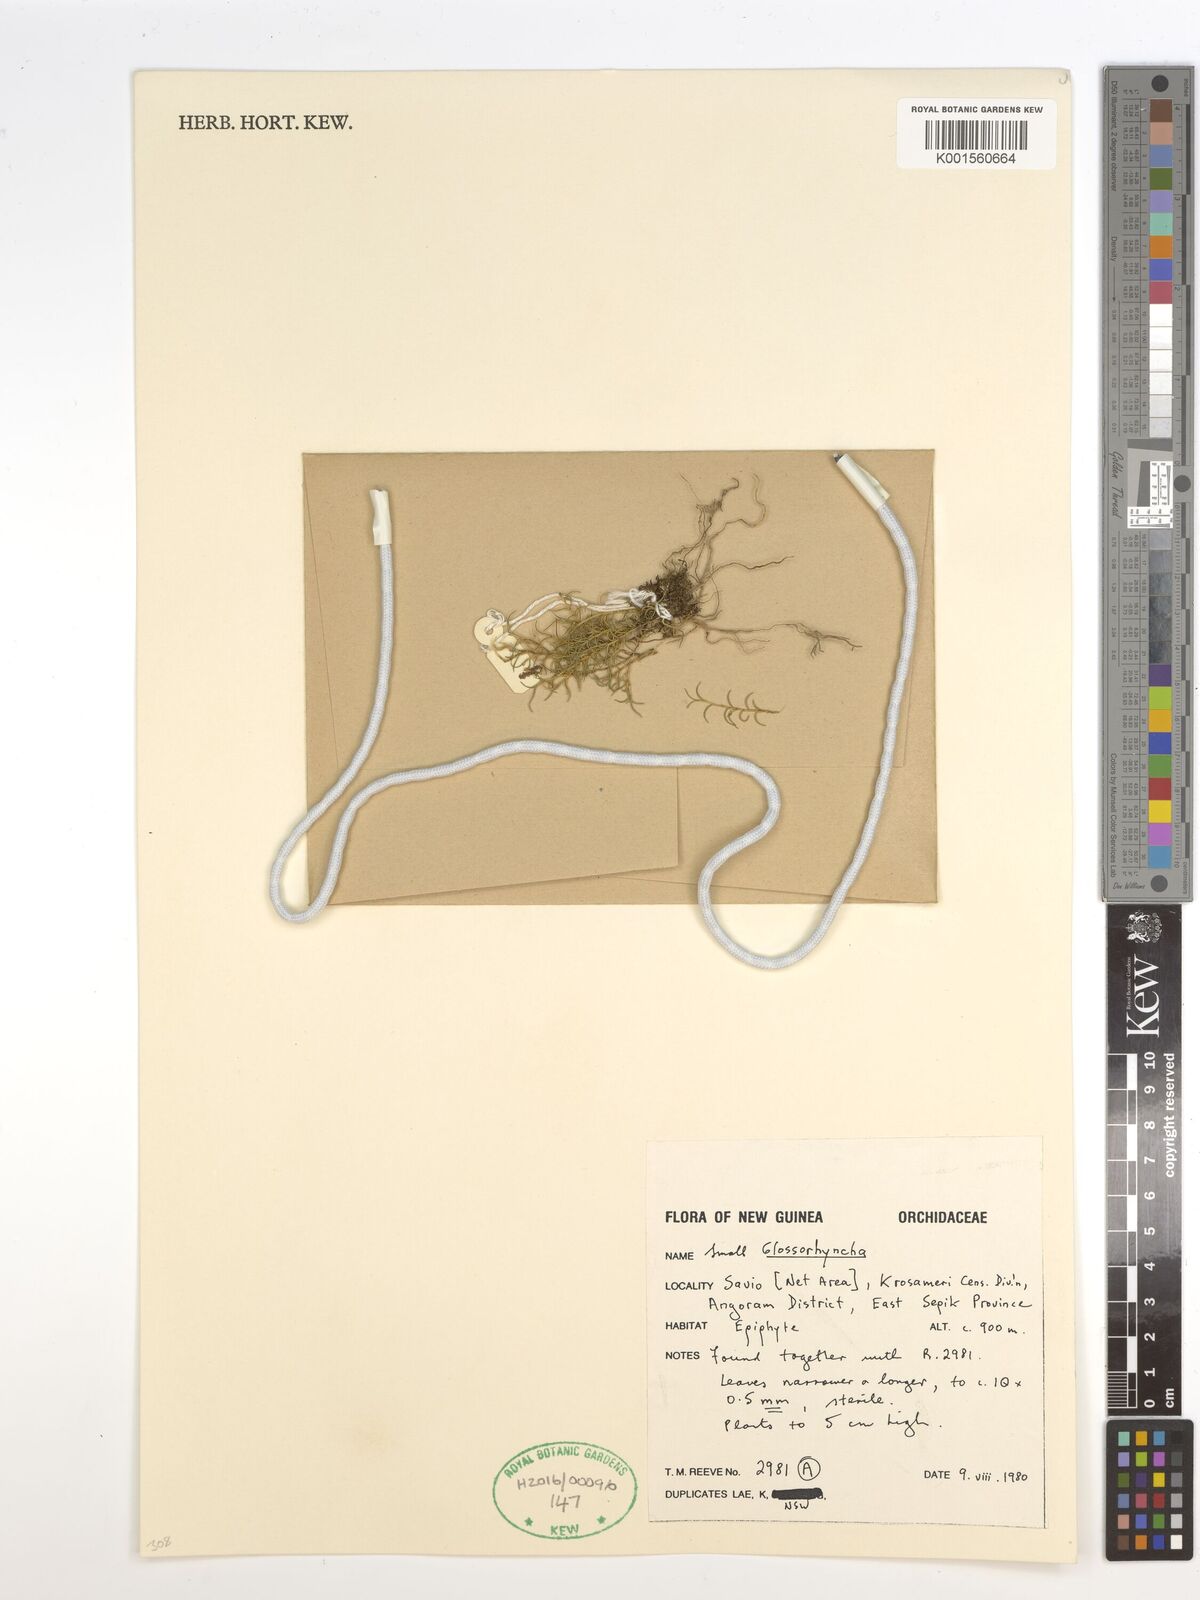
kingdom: Plantae
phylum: Tracheophyta
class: Liliopsida
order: Asparagales
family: Orchidaceae
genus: Glomera
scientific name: Glomera
